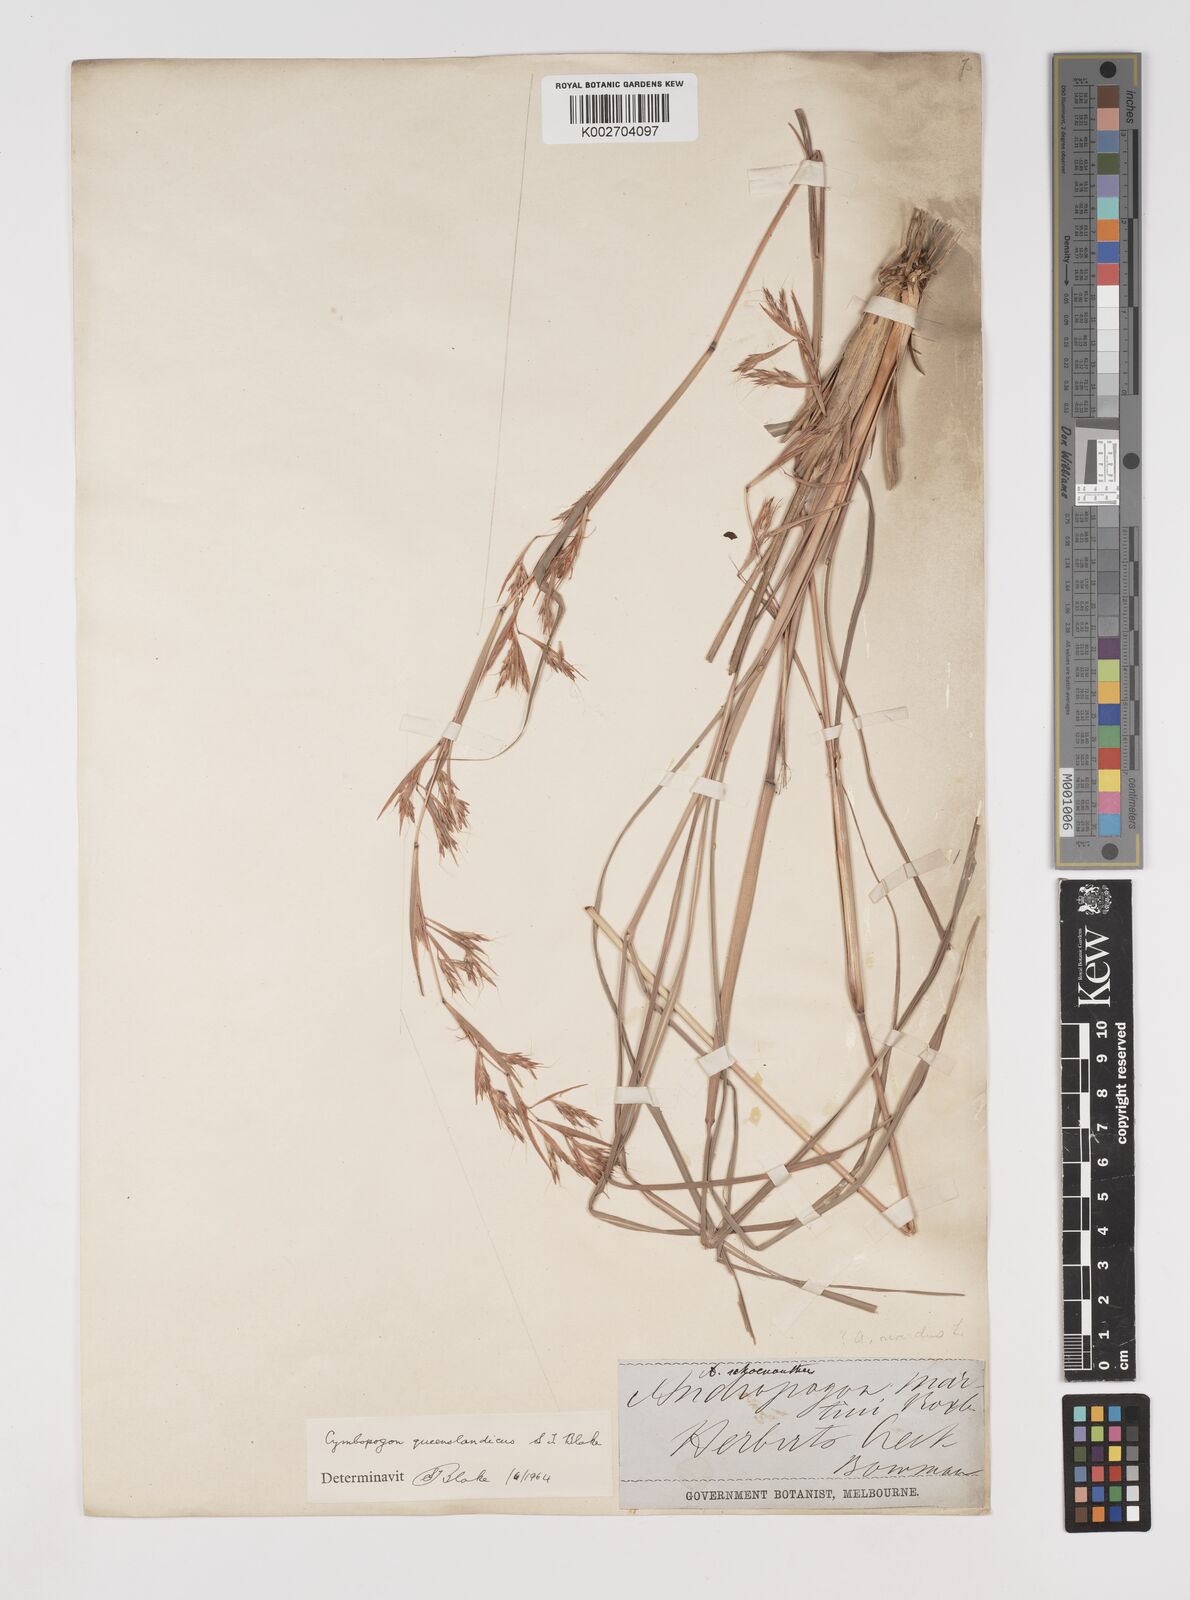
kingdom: Plantae
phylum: Tracheophyta
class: Liliopsida
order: Poales
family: Poaceae
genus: Cymbopogon
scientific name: Cymbopogon queenslandicus
